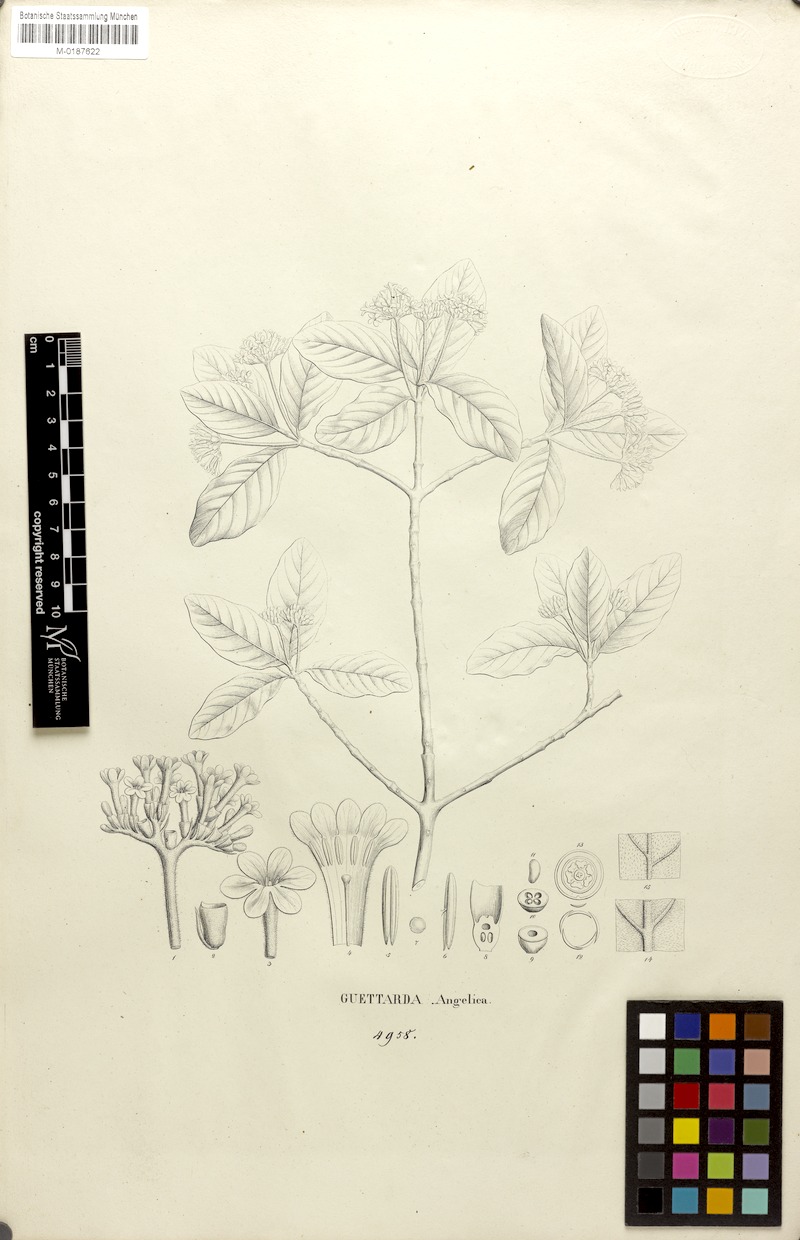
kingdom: Plantae
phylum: Tracheophyta
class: Magnoliopsida
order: Gentianales
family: Rubiaceae
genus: Guettarda
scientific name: Guettarda angelica
